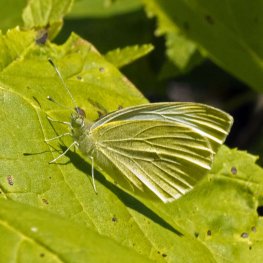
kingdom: Animalia
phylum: Arthropoda
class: Insecta
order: Lepidoptera
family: Pieridae
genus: Pieris
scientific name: Pieris rapae
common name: Cabbage White
